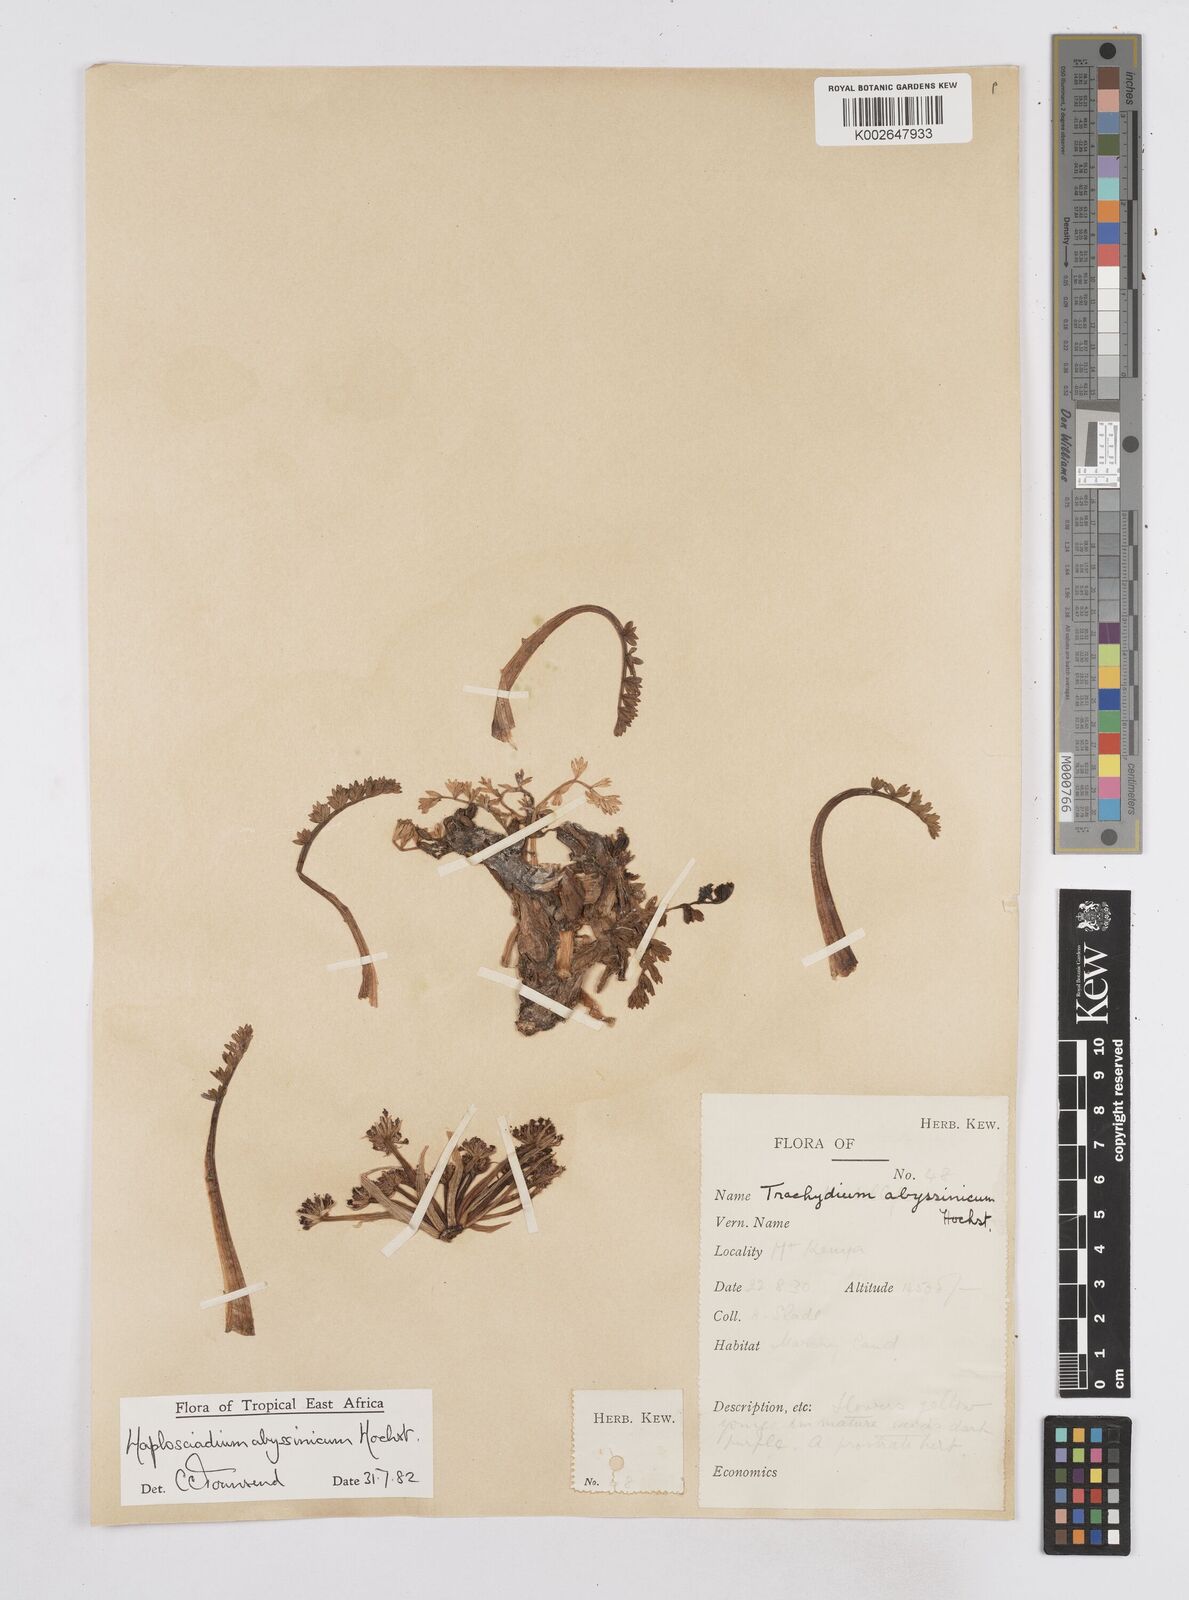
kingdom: Plantae
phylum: Tracheophyta
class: Magnoliopsida
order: Apiales
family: Apiaceae
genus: Haplosciadium
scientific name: Haplosciadium abyssinicum
